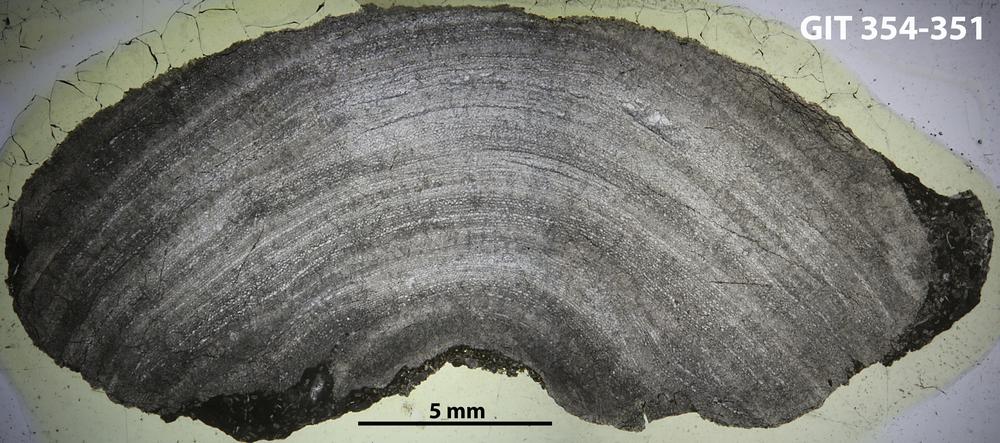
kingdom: Animalia
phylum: Porifera
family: Ecclimadictyidae
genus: Ecclimadictyon
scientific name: Ecclimadictyon Clathrodictyon microvesiculosum
